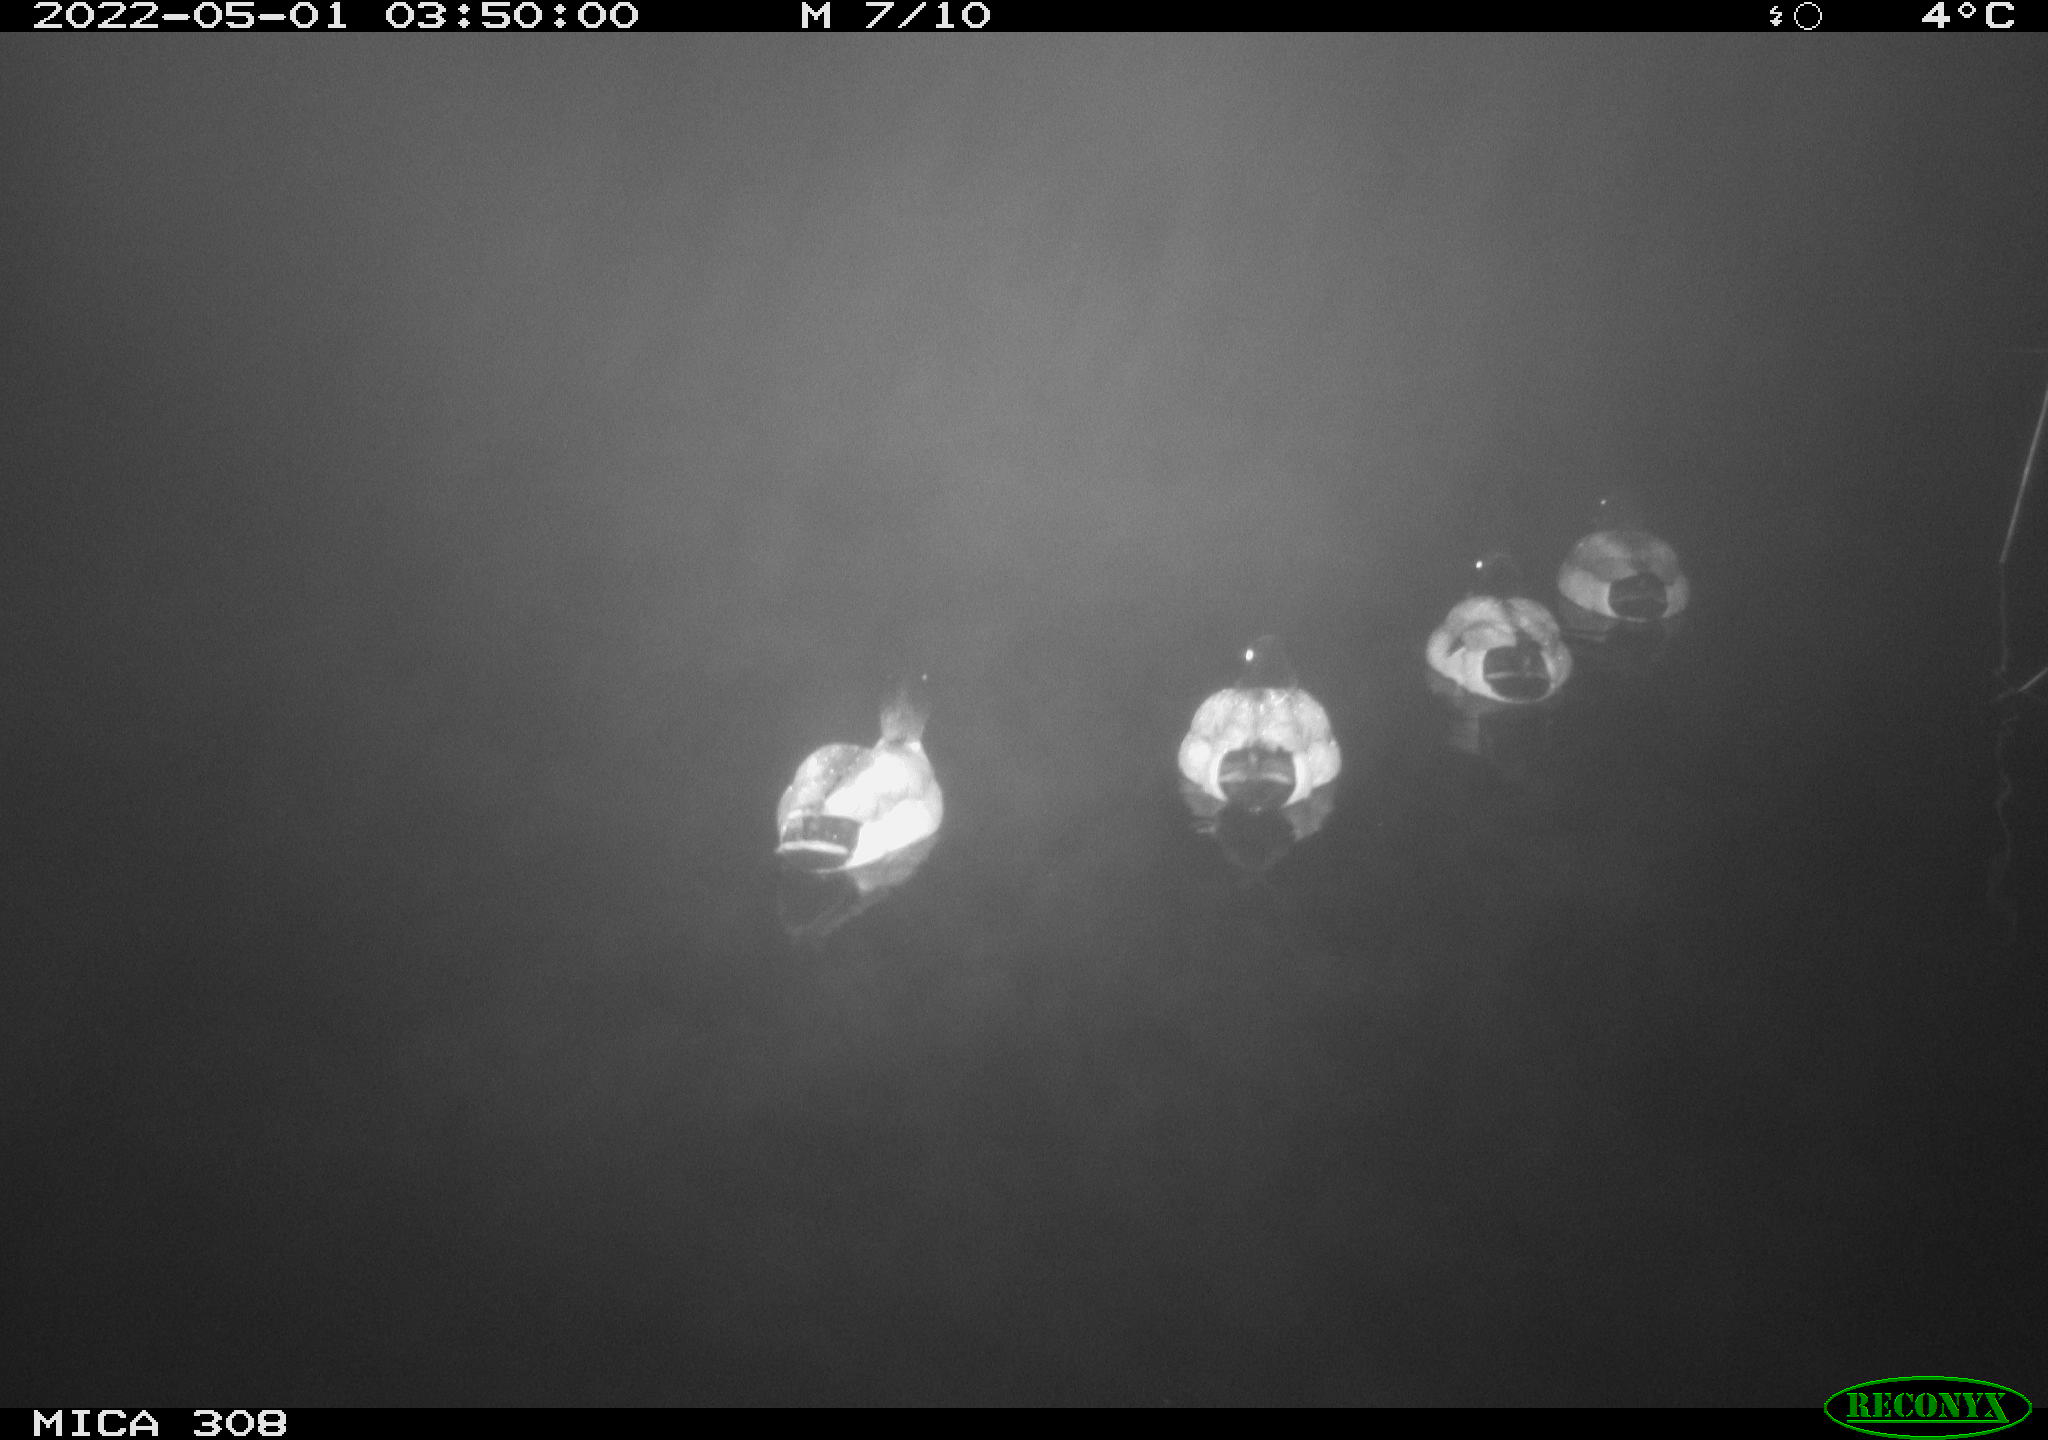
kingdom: Animalia
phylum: Chordata
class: Aves
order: Anseriformes
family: Anatidae
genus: Anas
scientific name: Anas platyrhynchos
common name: Mallard
